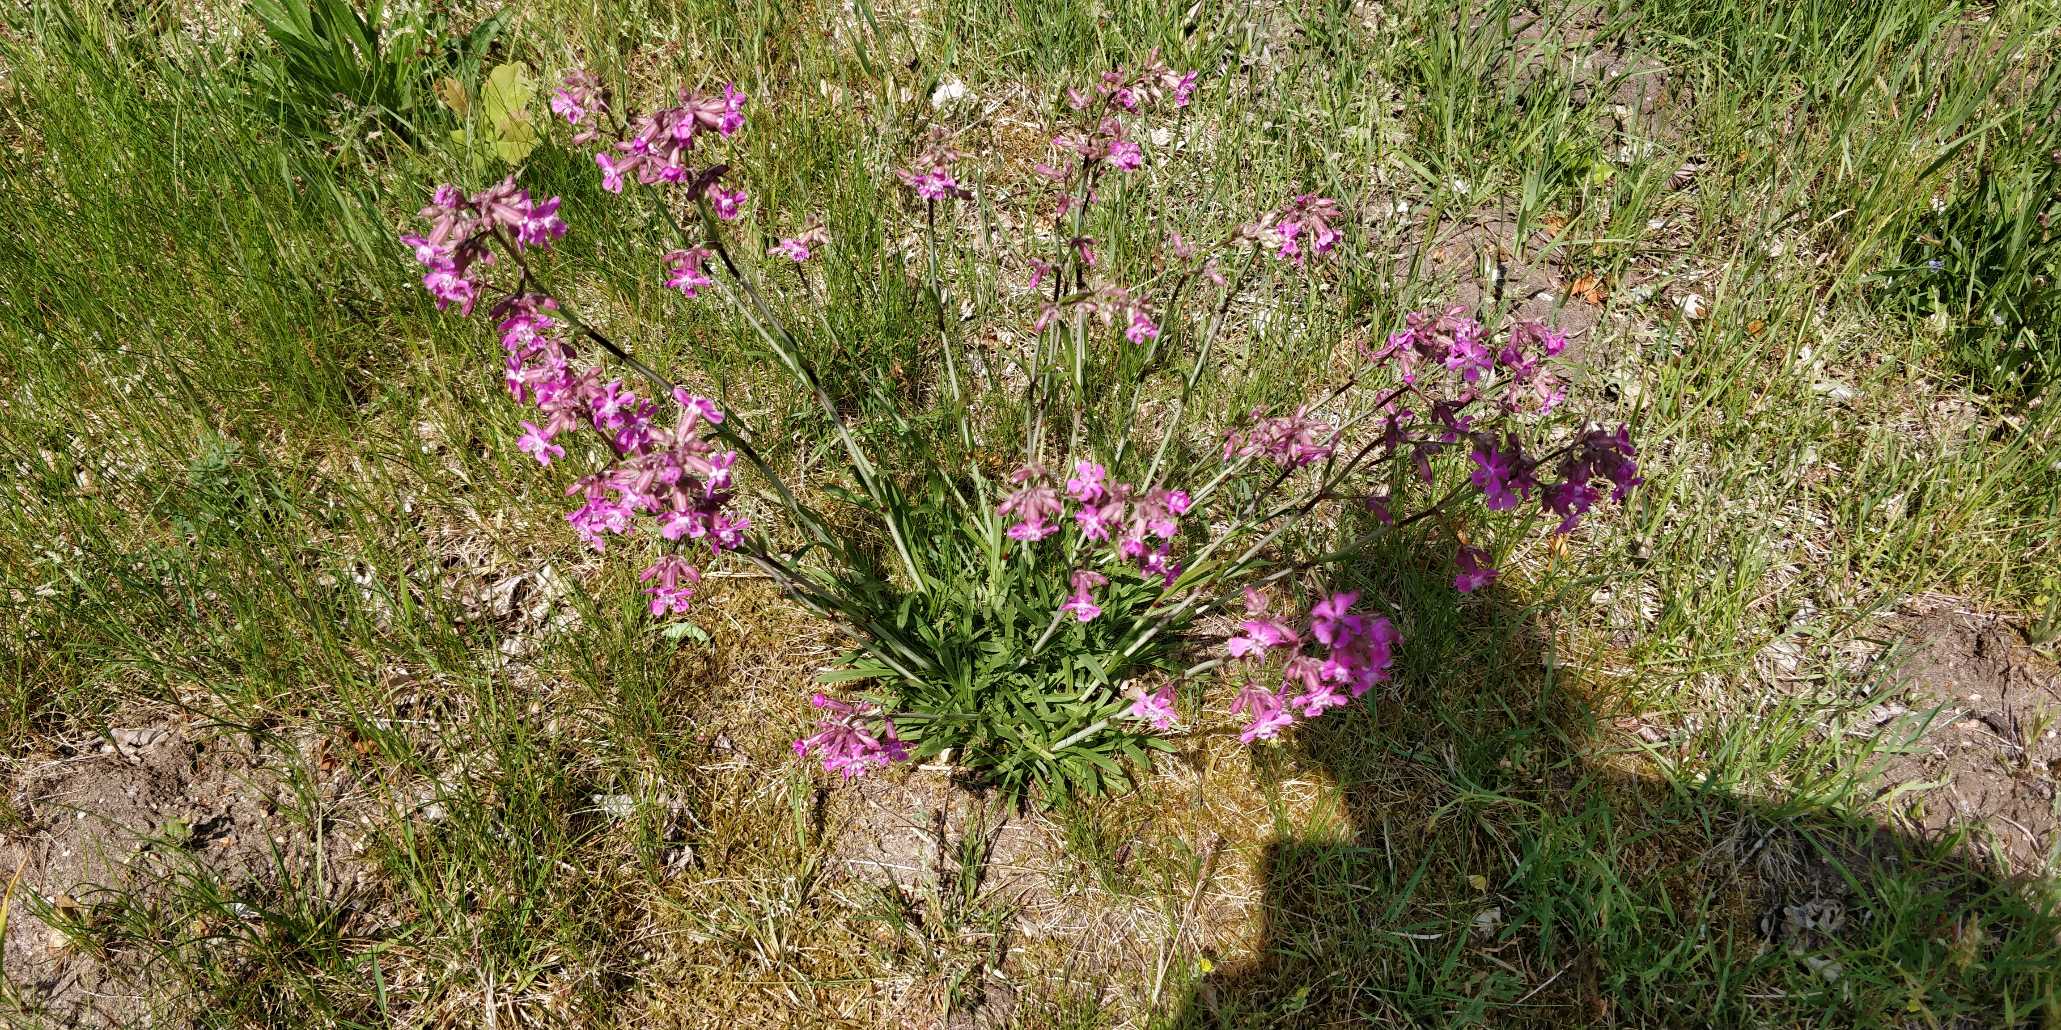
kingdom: Plantae
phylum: Tracheophyta
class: Magnoliopsida
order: Caryophyllales
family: Caryophyllaceae
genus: Viscaria
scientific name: Viscaria vulgaris
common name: Tjærenellike
